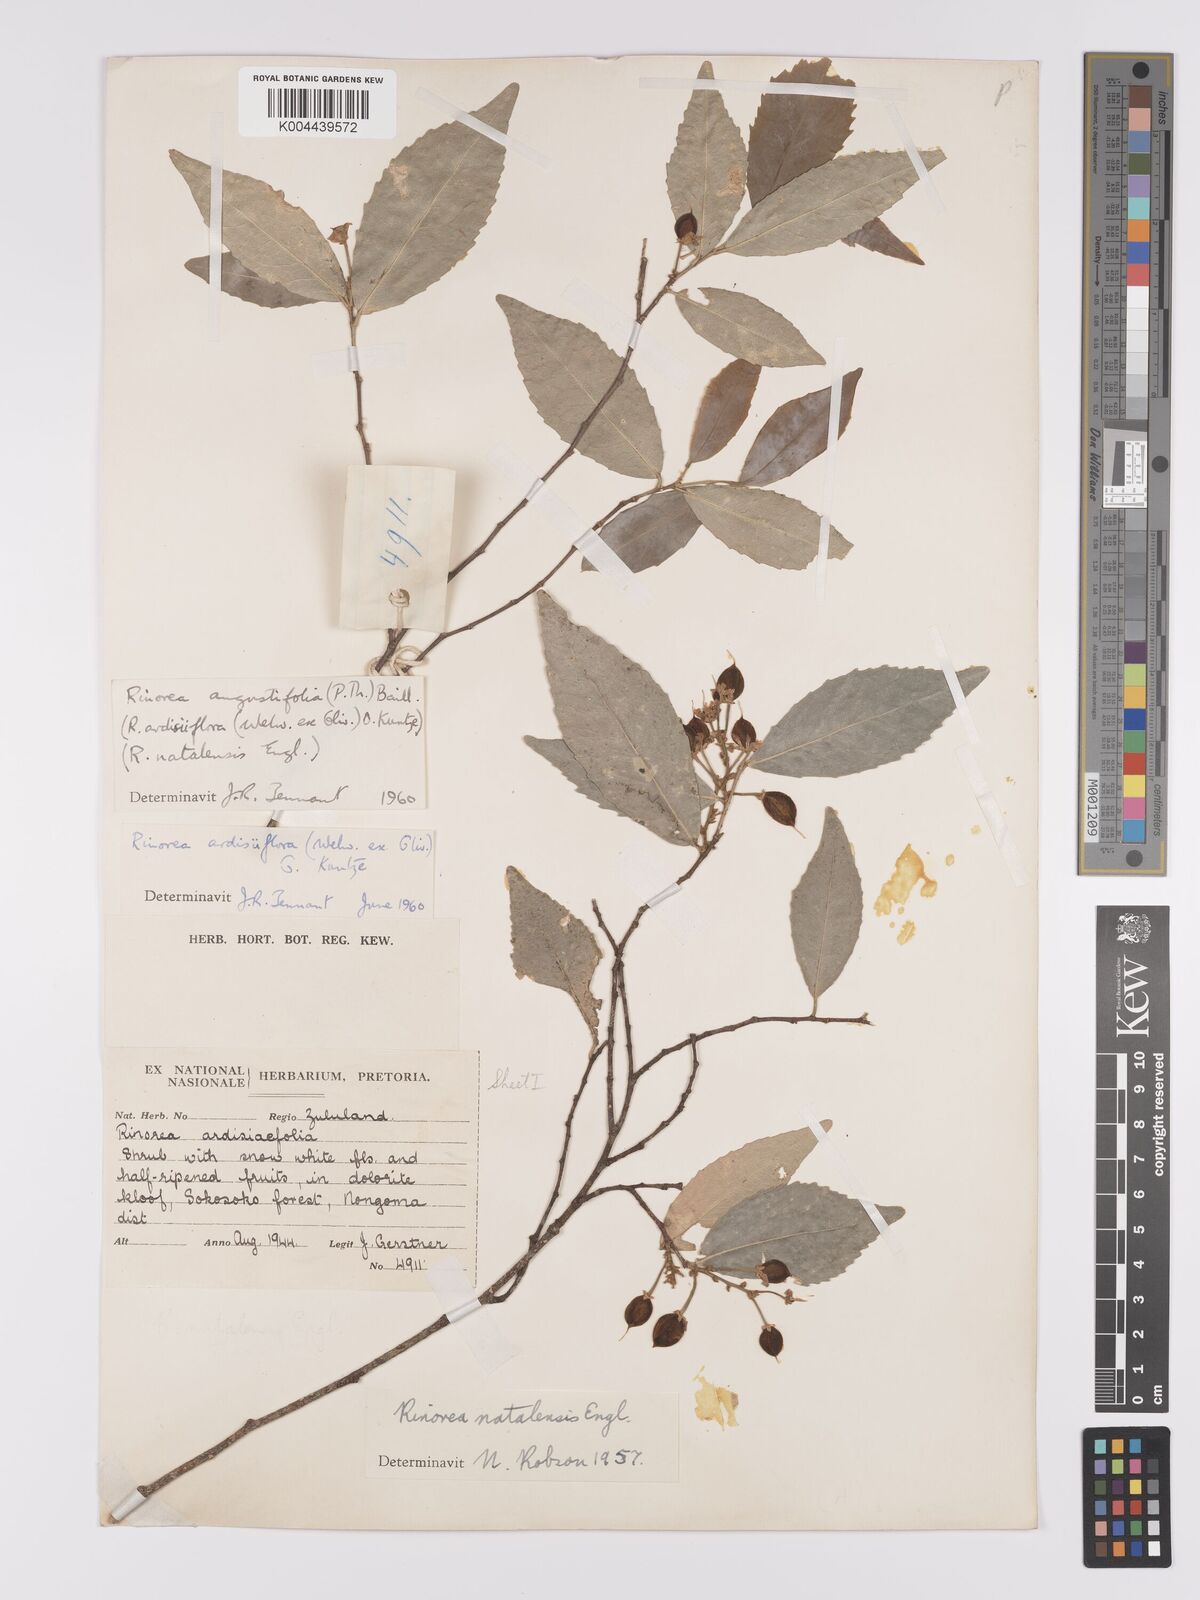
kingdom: Plantae
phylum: Tracheophyta
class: Magnoliopsida
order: Malpighiales
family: Violaceae
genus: Rinorea
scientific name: Rinorea angustifolia
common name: White violet-bush
